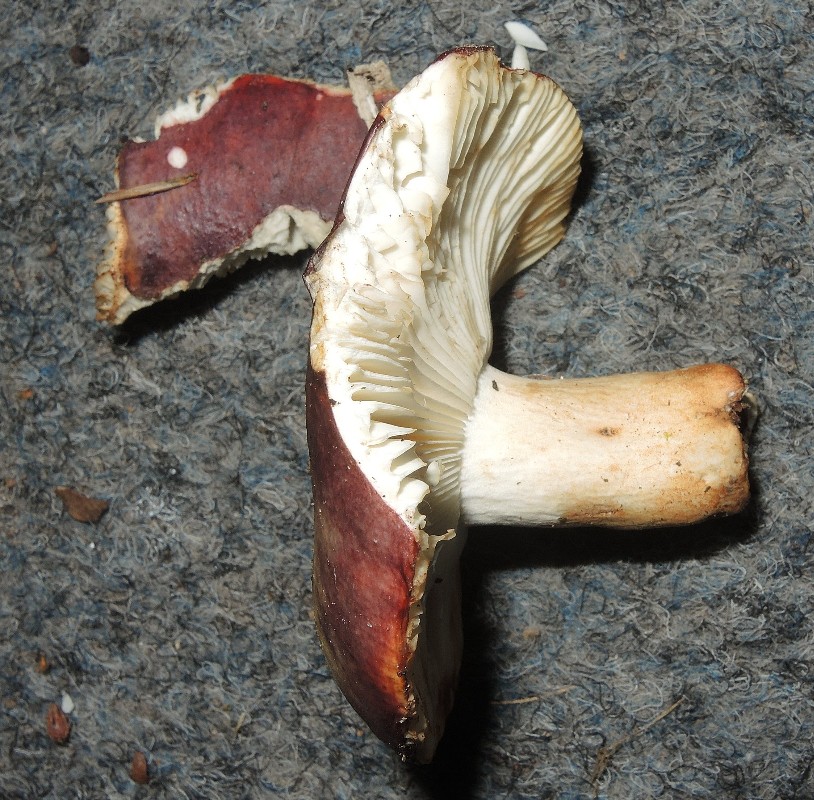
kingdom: Fungi
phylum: Basidiomycota
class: Agaricomycetes
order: Russulales
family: Russulaceae
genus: Russula
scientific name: Russula viscida
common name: knippe-skørhat
